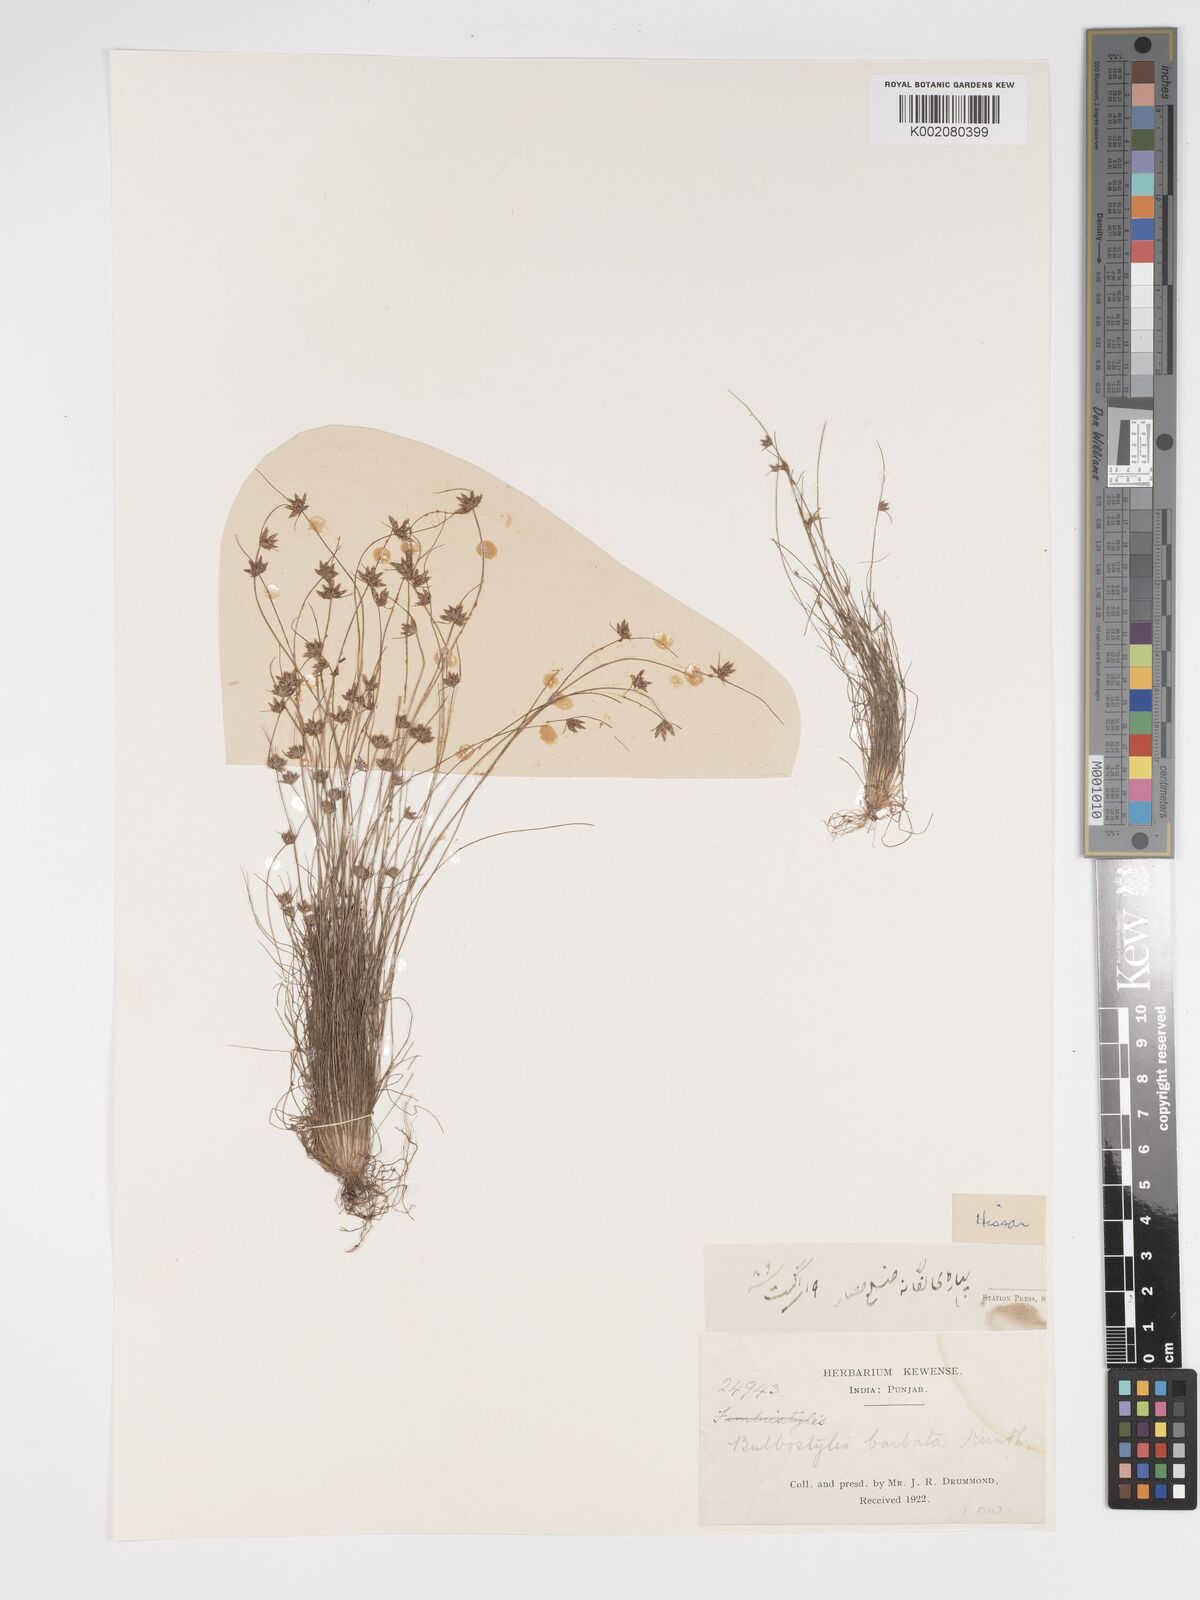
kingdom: Plantae
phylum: Tracheophyta
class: Liliopsida
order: Poales
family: Cyperaceae
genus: Bulbostylis
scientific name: Bulbostylis barbata
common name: Watergrass
